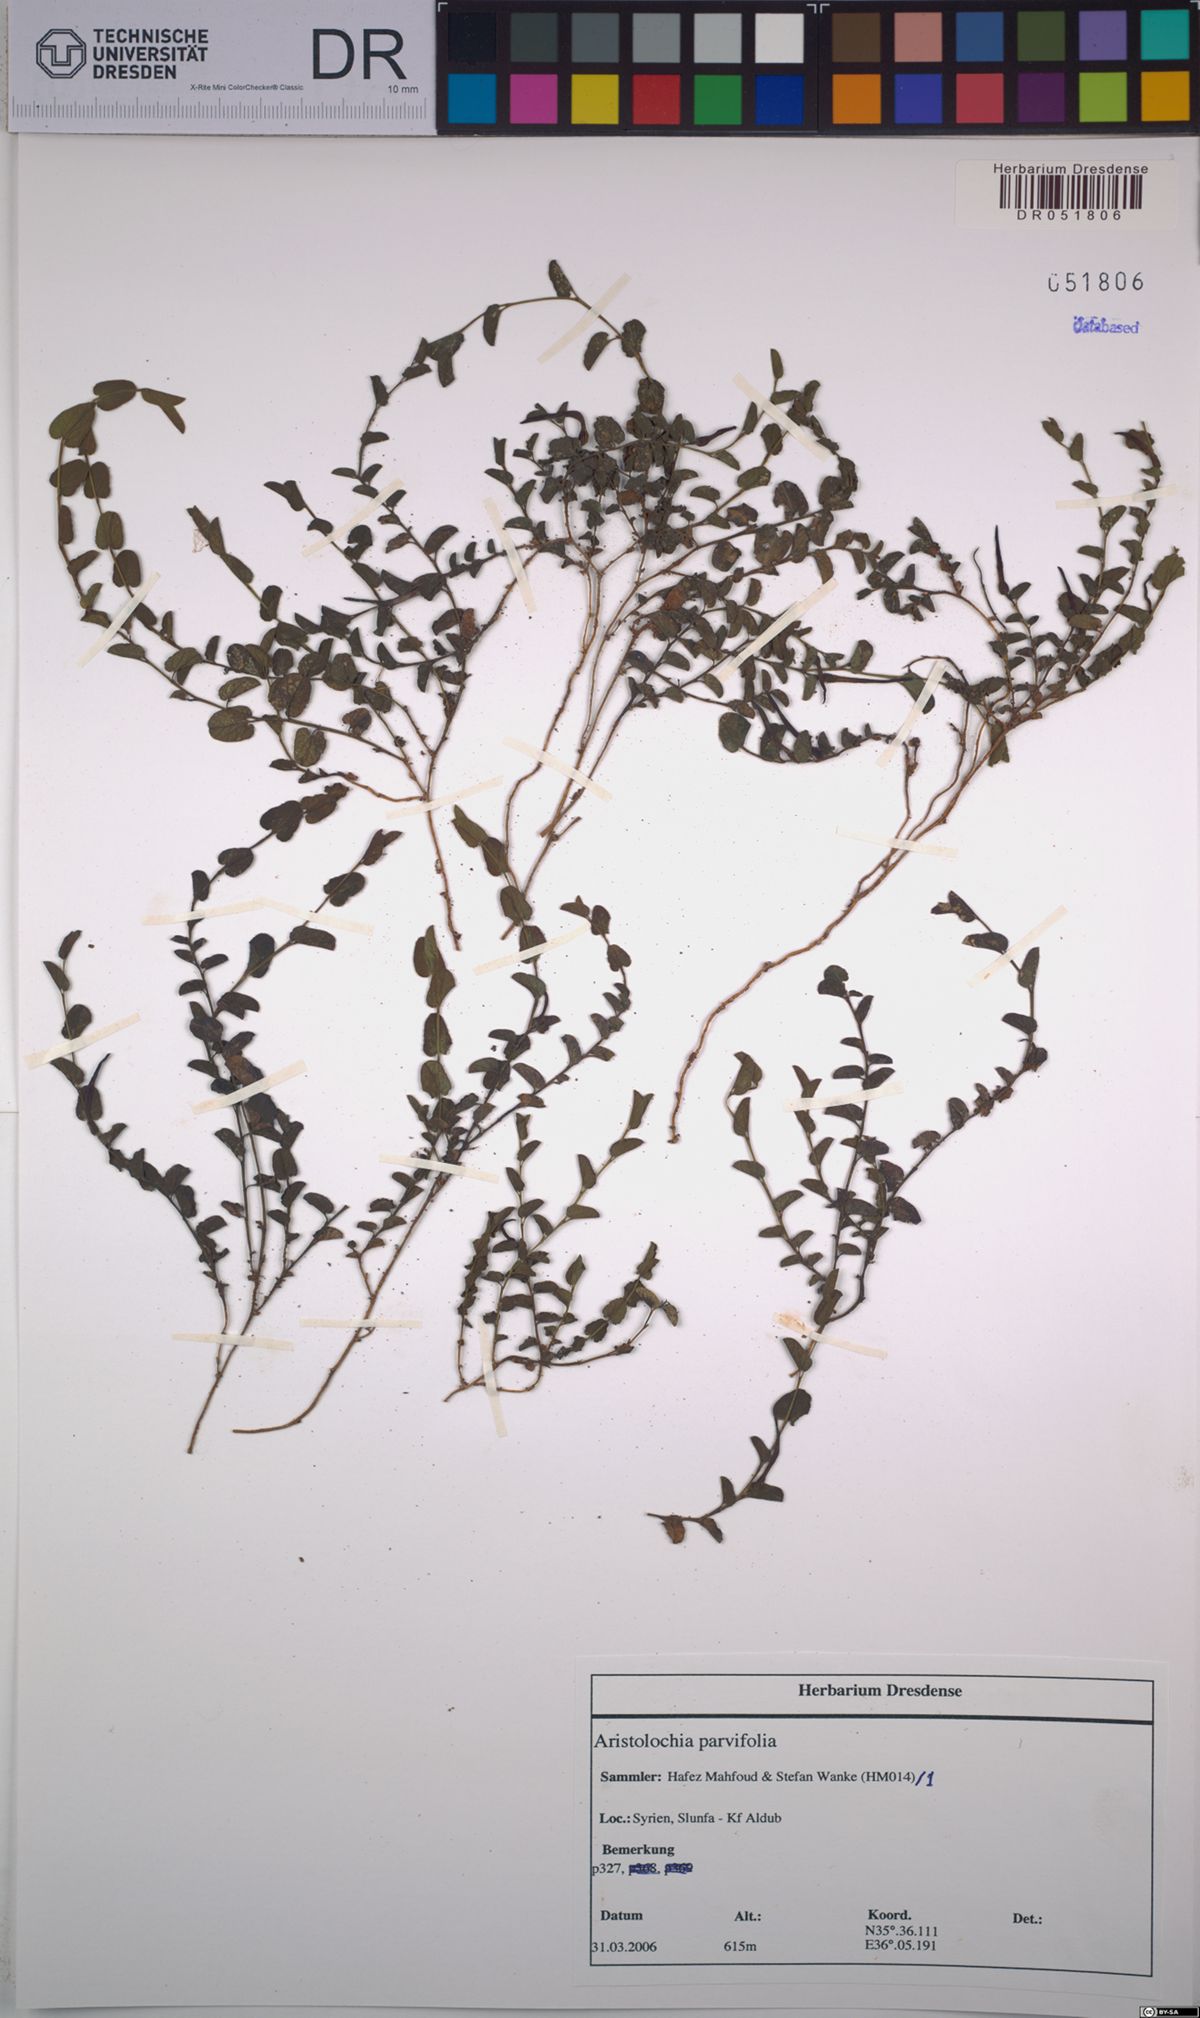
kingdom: Plantae
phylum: Tracheophyta
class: Magnoliopsida
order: Piperales
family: Aristolochiaceae
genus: Aristolochia
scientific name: Aristolochia parvifolia
